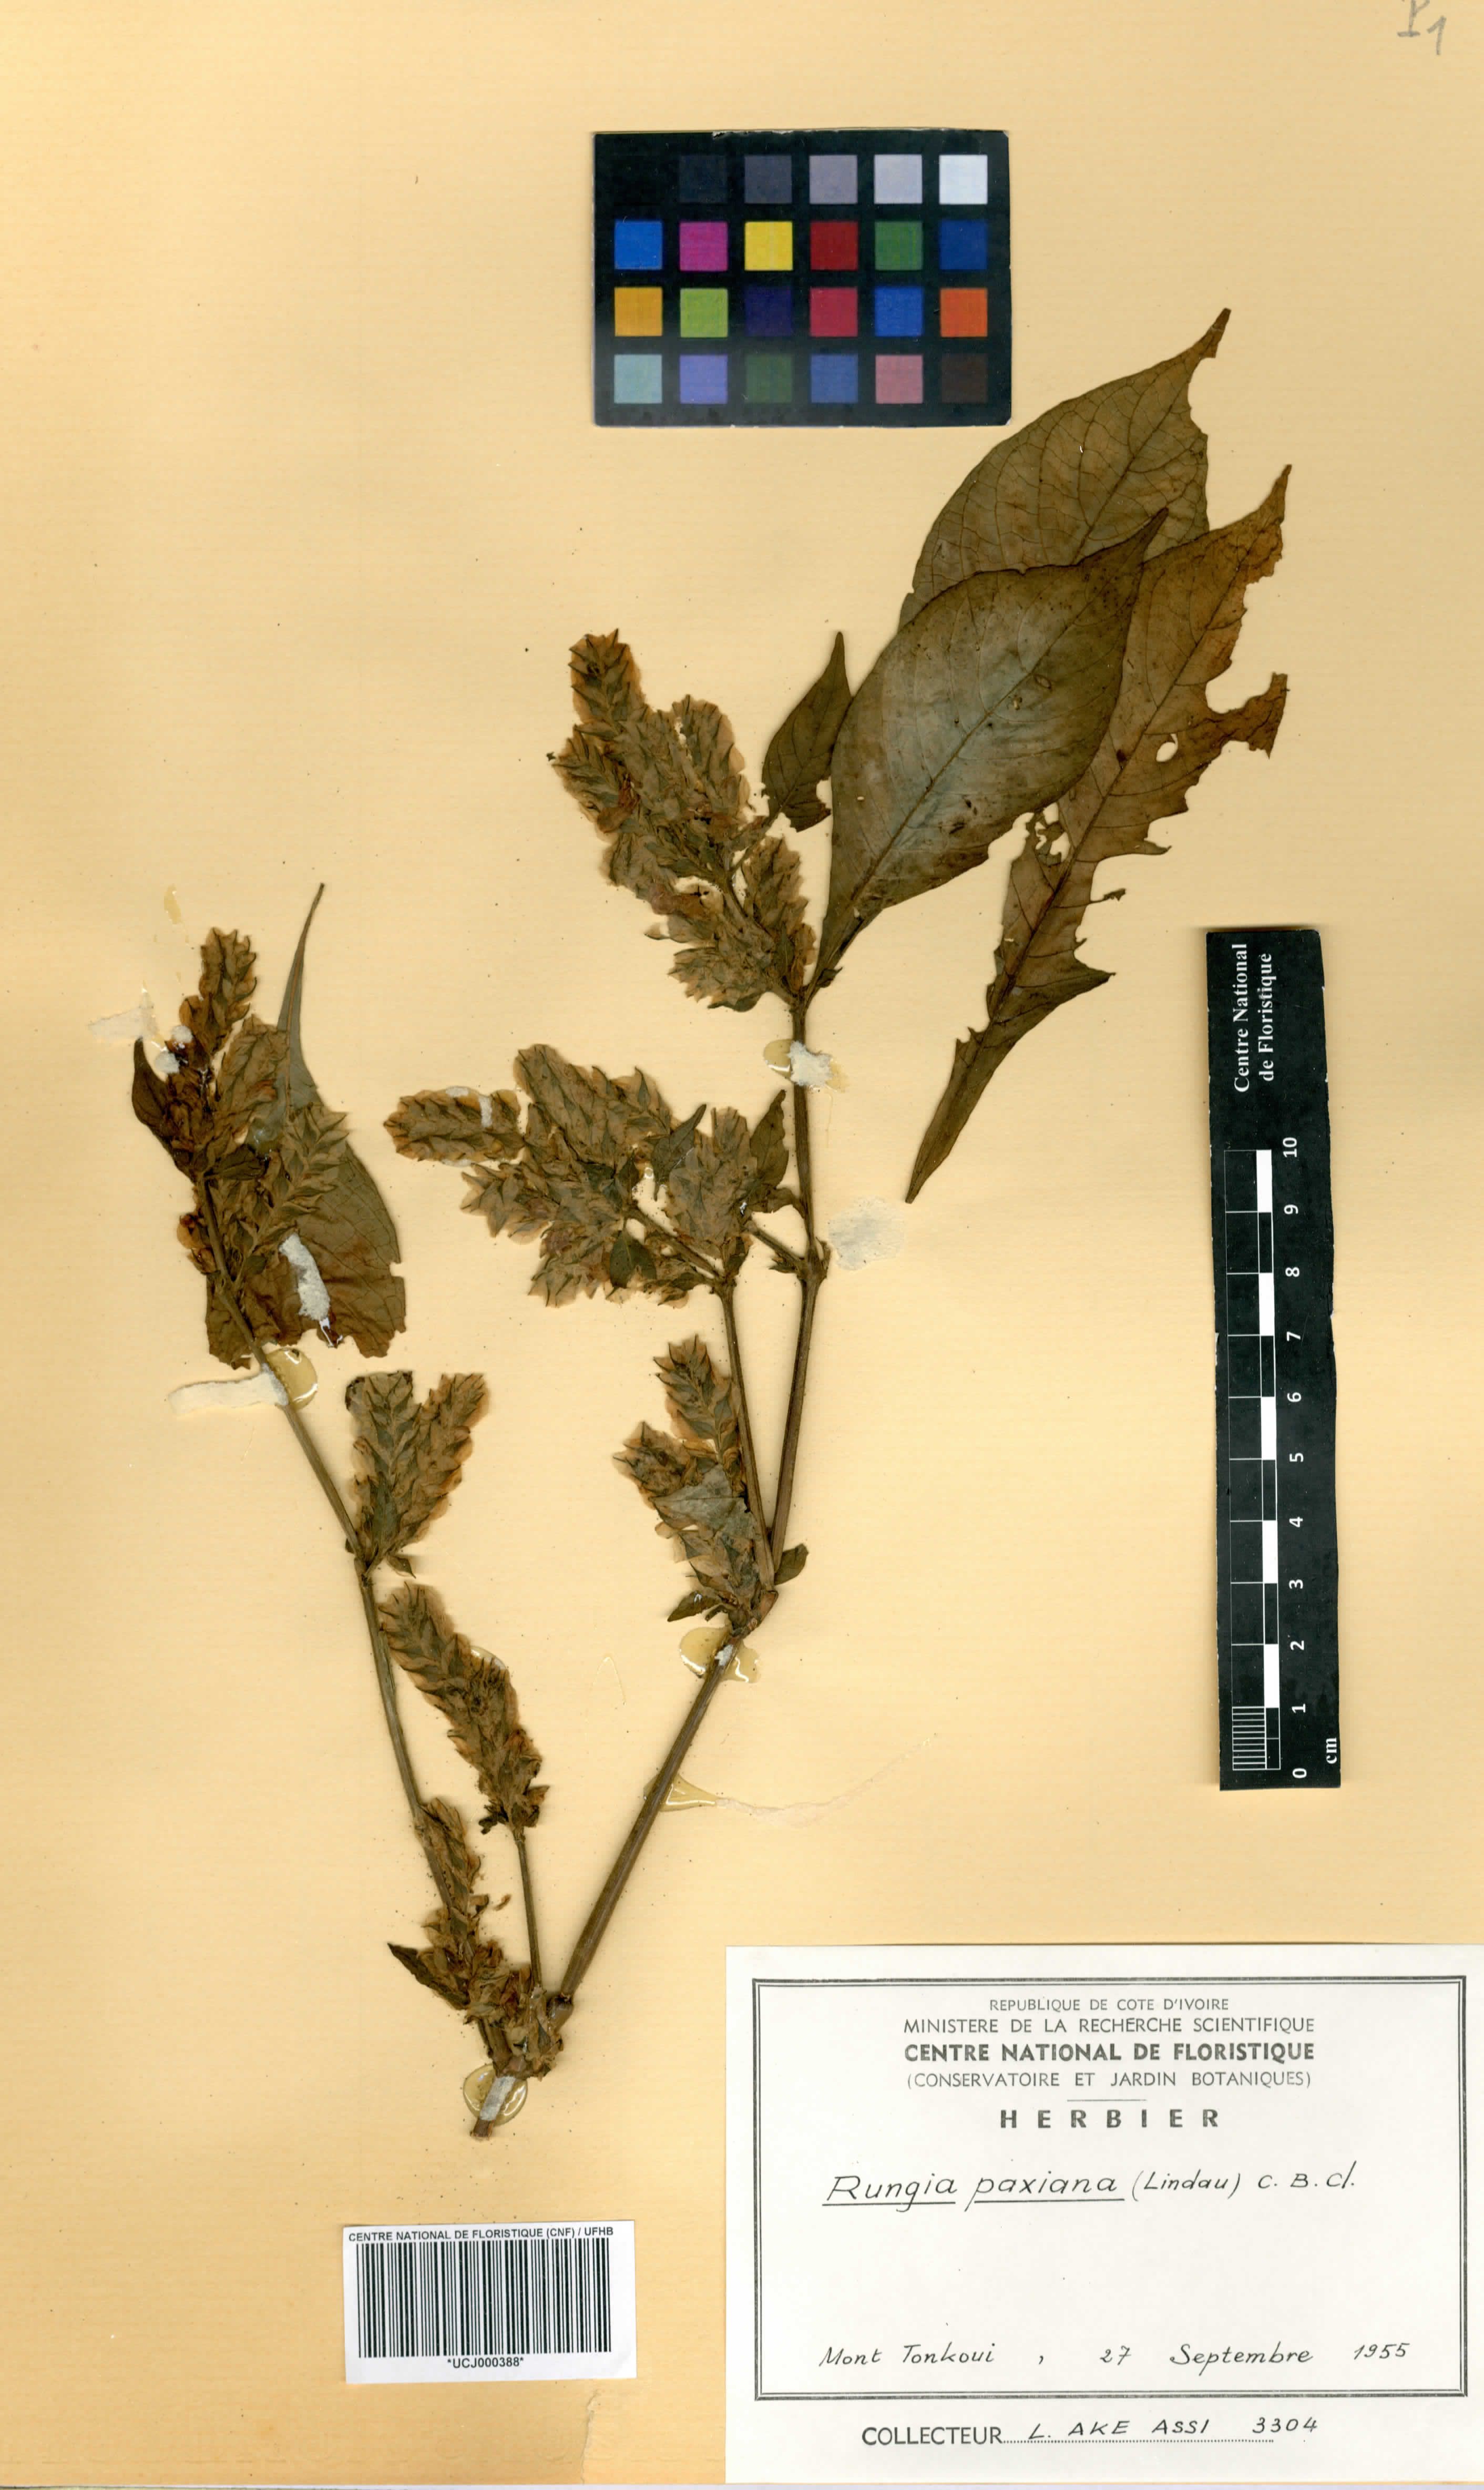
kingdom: Plantae
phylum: Tracheophyta
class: Magnoliopsida
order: Lamiales
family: Acanthaceae
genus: Rungia
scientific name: Rungia paxiana
